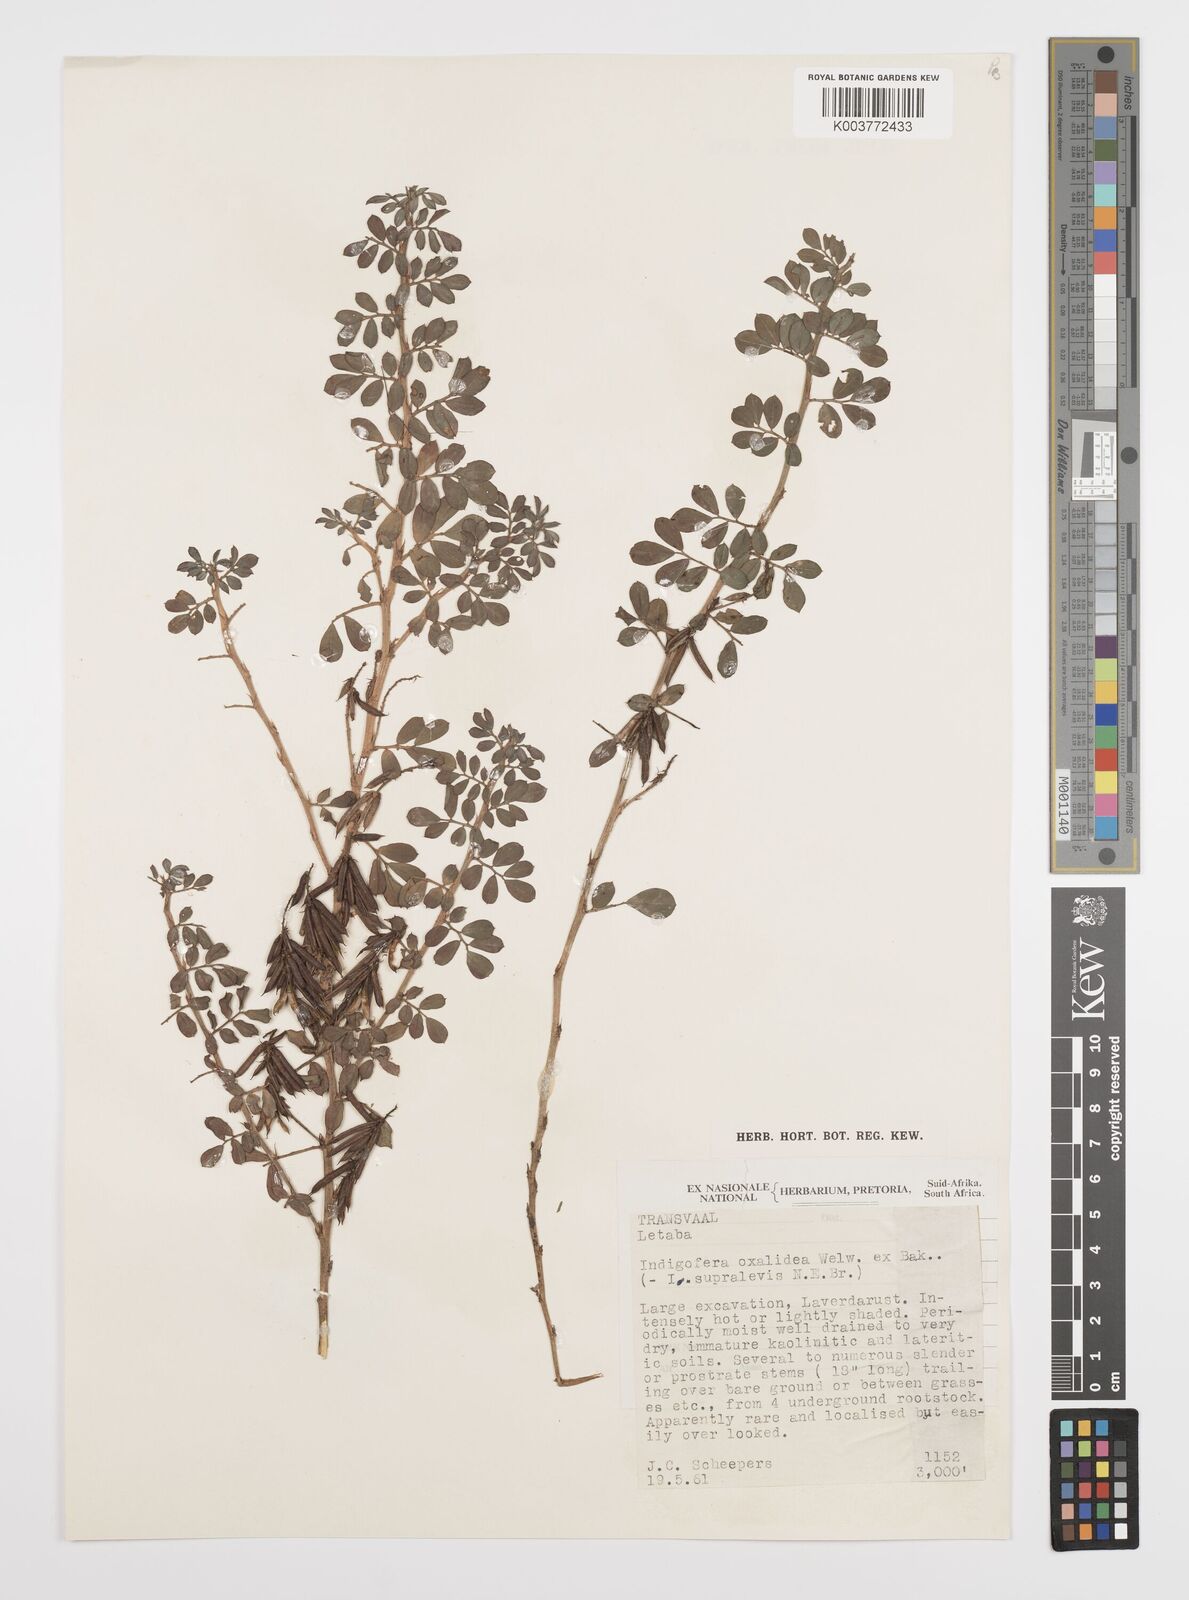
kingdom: Plantae
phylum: Tracheophyta
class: Magnoliopsida
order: Fabales
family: Fabaceae
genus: Indigofera
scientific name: Indigofera oxalidea
